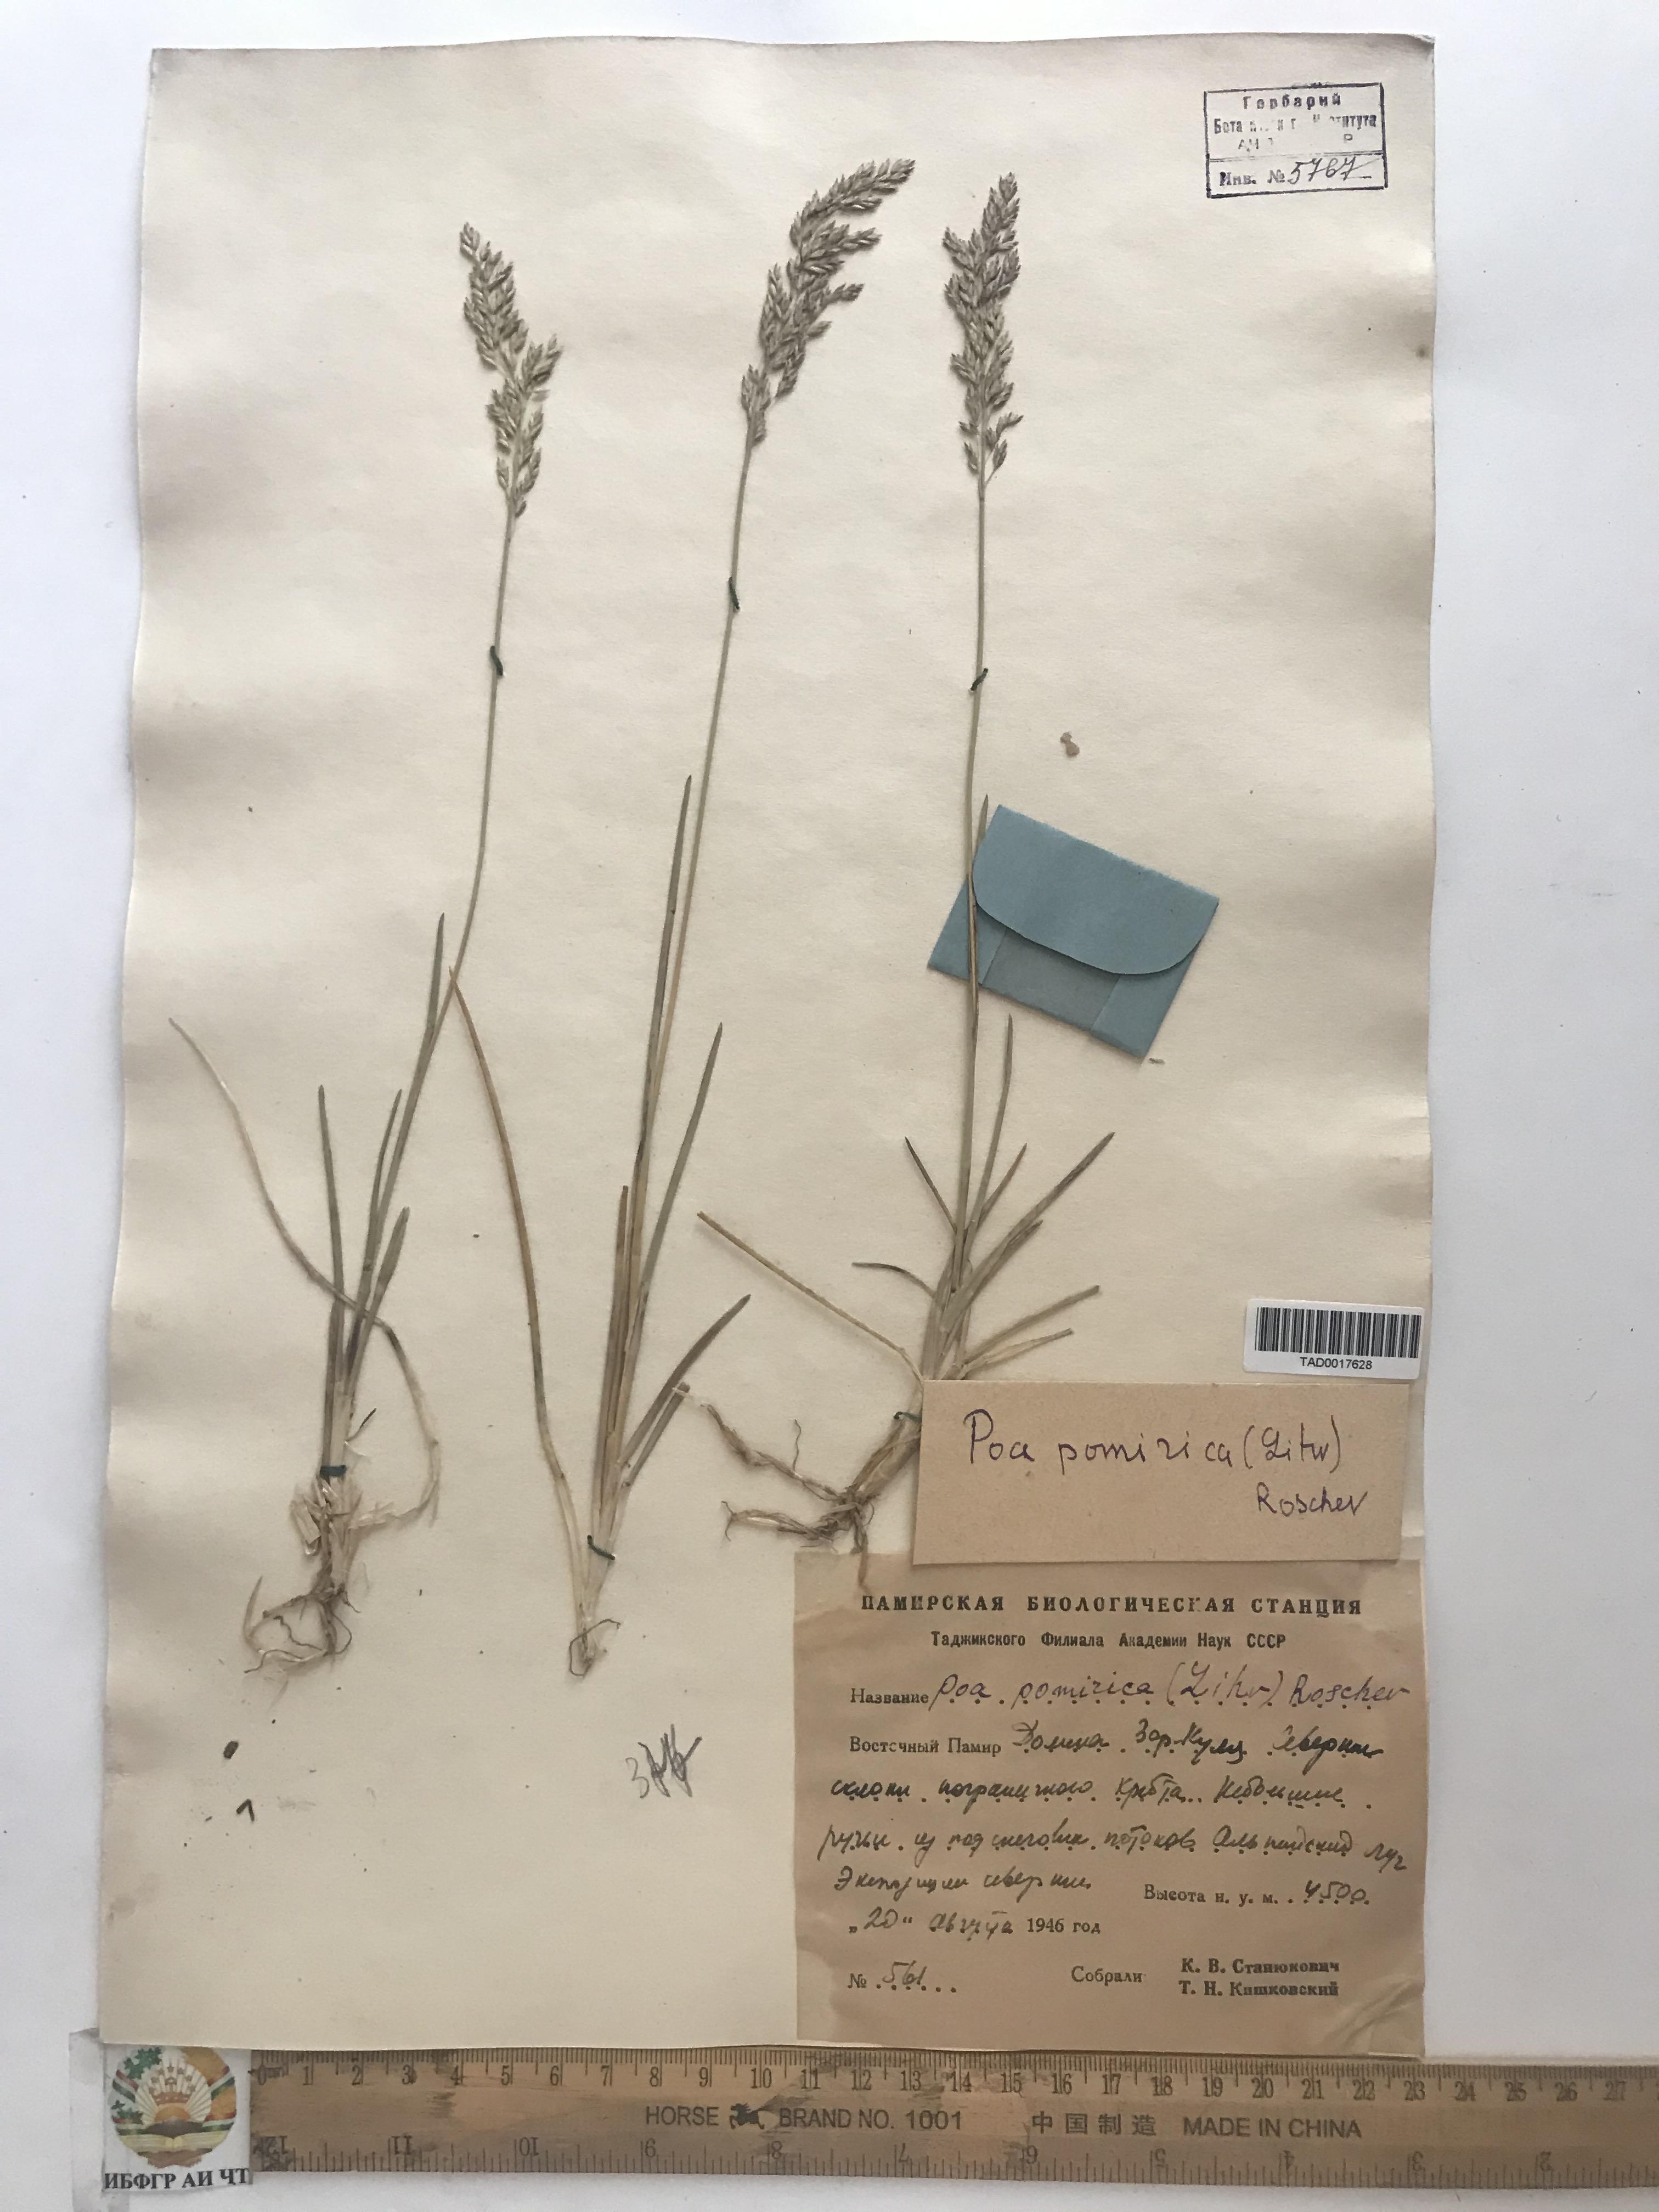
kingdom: Plantae
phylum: Tracheophyta
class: Liliopsida
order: Poales
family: Poaceae
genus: Poa
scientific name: Poa tianschanica
